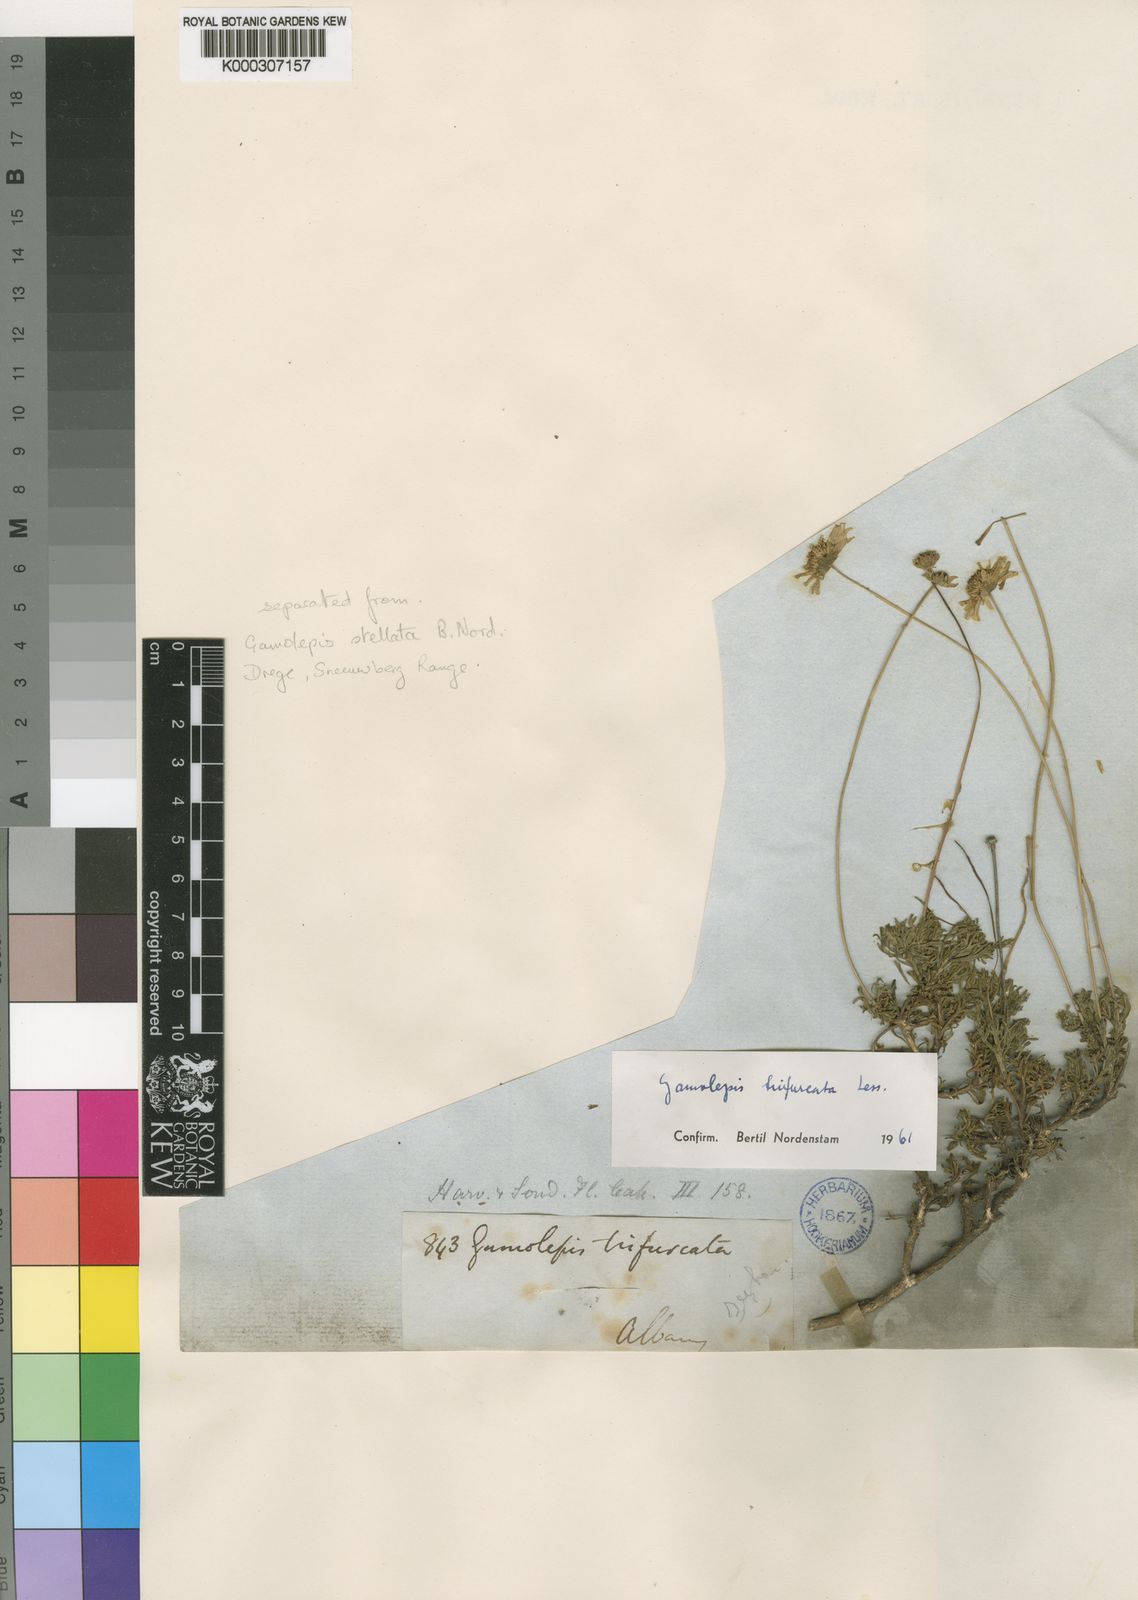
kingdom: Plantae
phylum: Tracheophyta
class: Magnoliopsida
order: Asterales
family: Asteraceae
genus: Euryops
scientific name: Euryops anthemoides
